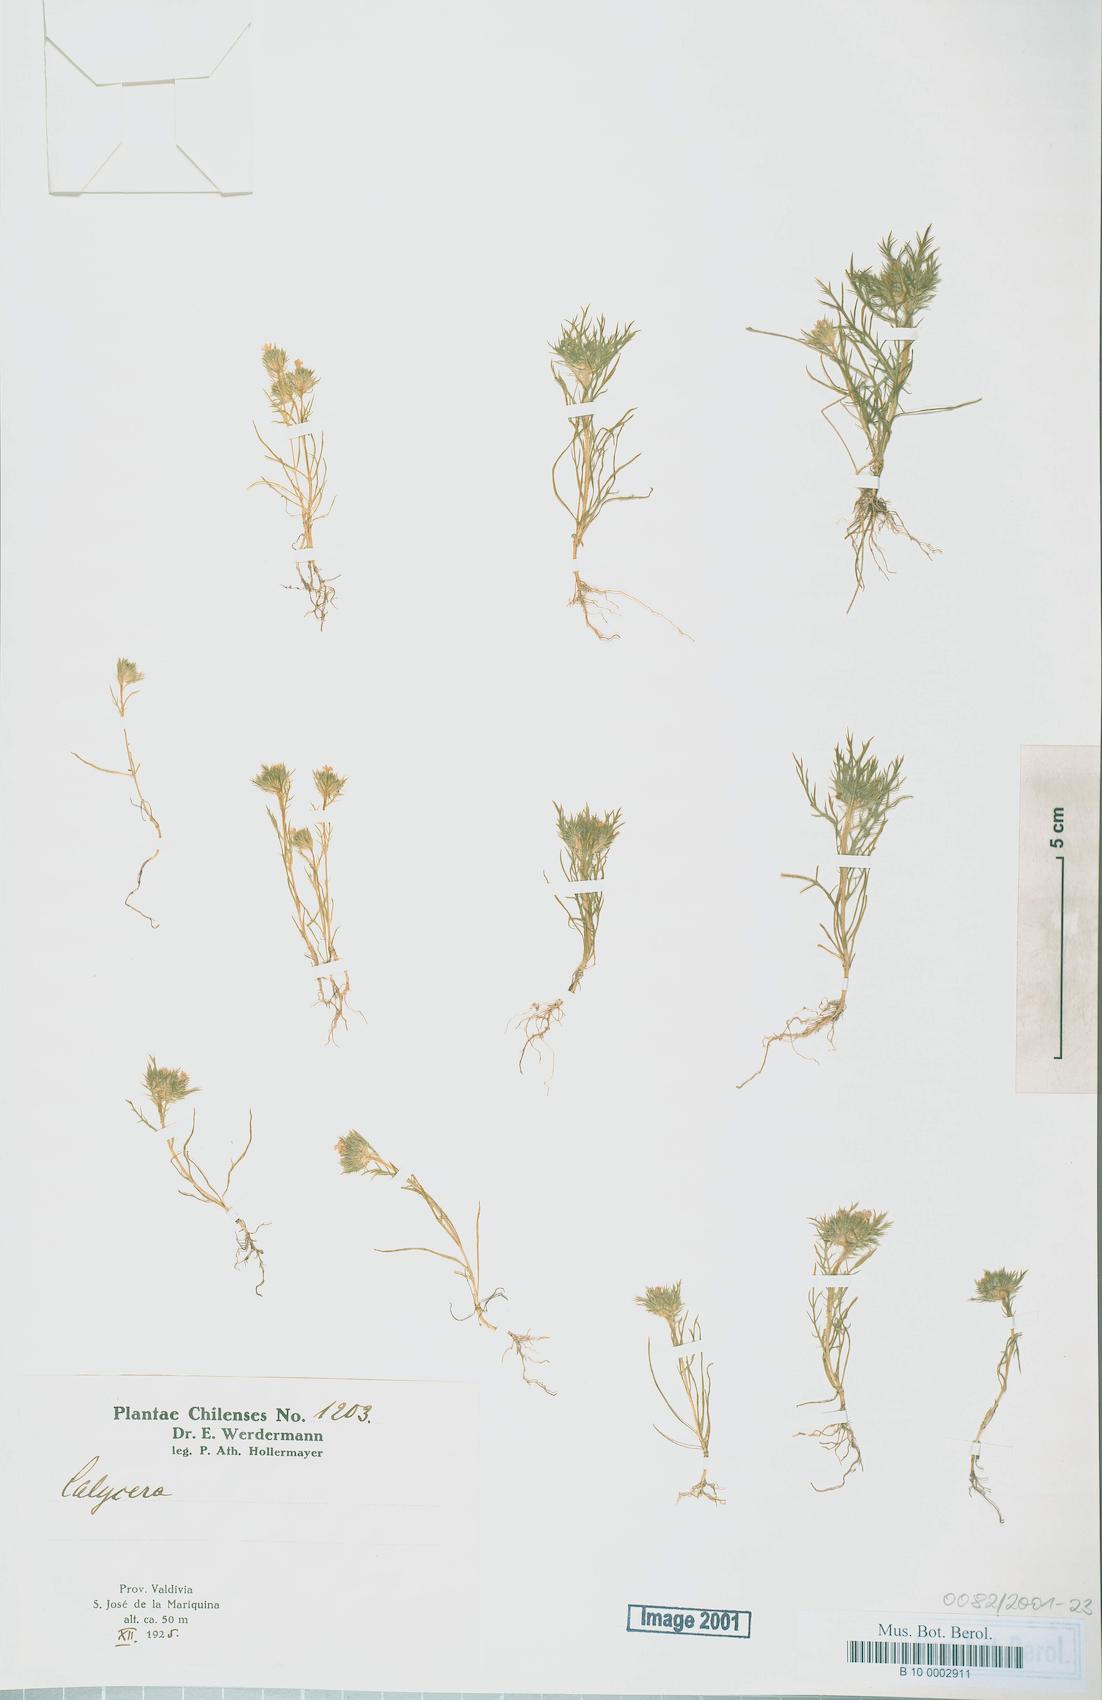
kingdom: Plantae
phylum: Tracheophyta
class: Magnoliopsida
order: Asterales
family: Calyceraceae
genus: Calycera
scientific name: Calycera
